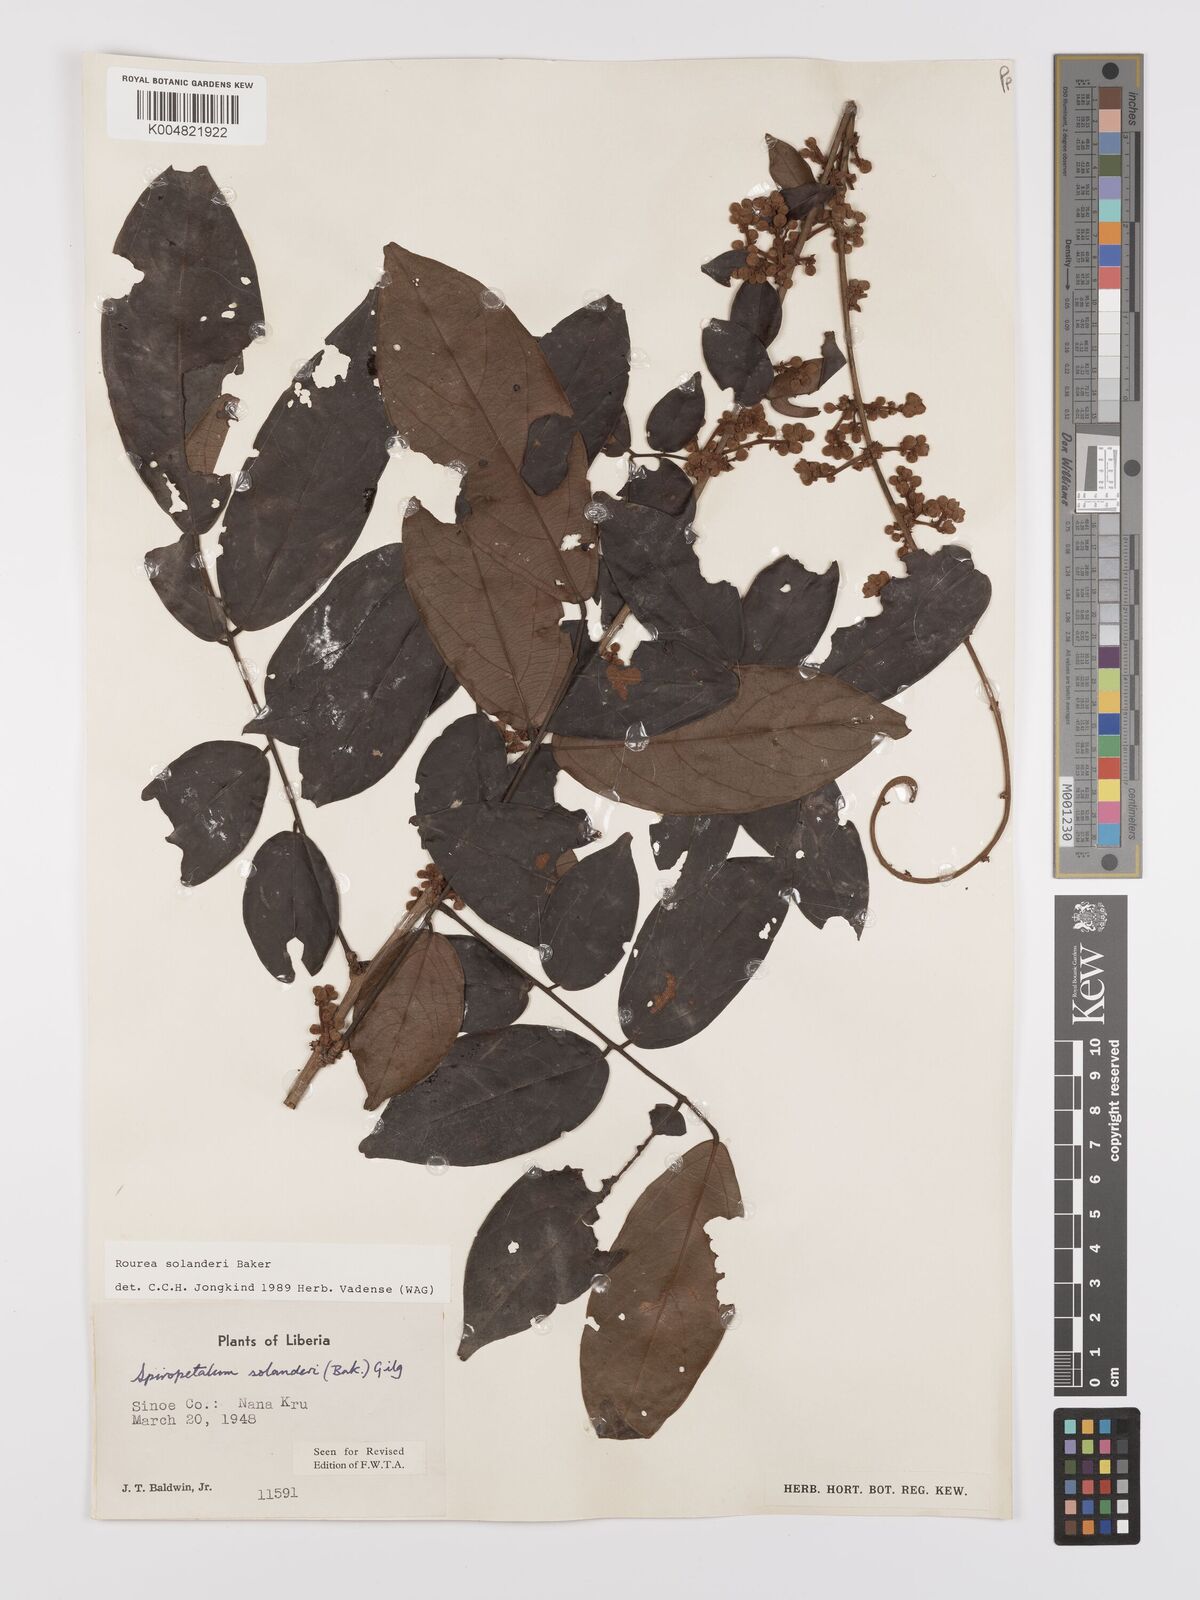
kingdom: Plantae
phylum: Tracheophyta
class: Magnoliopsida
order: Oxalidales
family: Connaraceae
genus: Rourea
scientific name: Rourea solanderi
